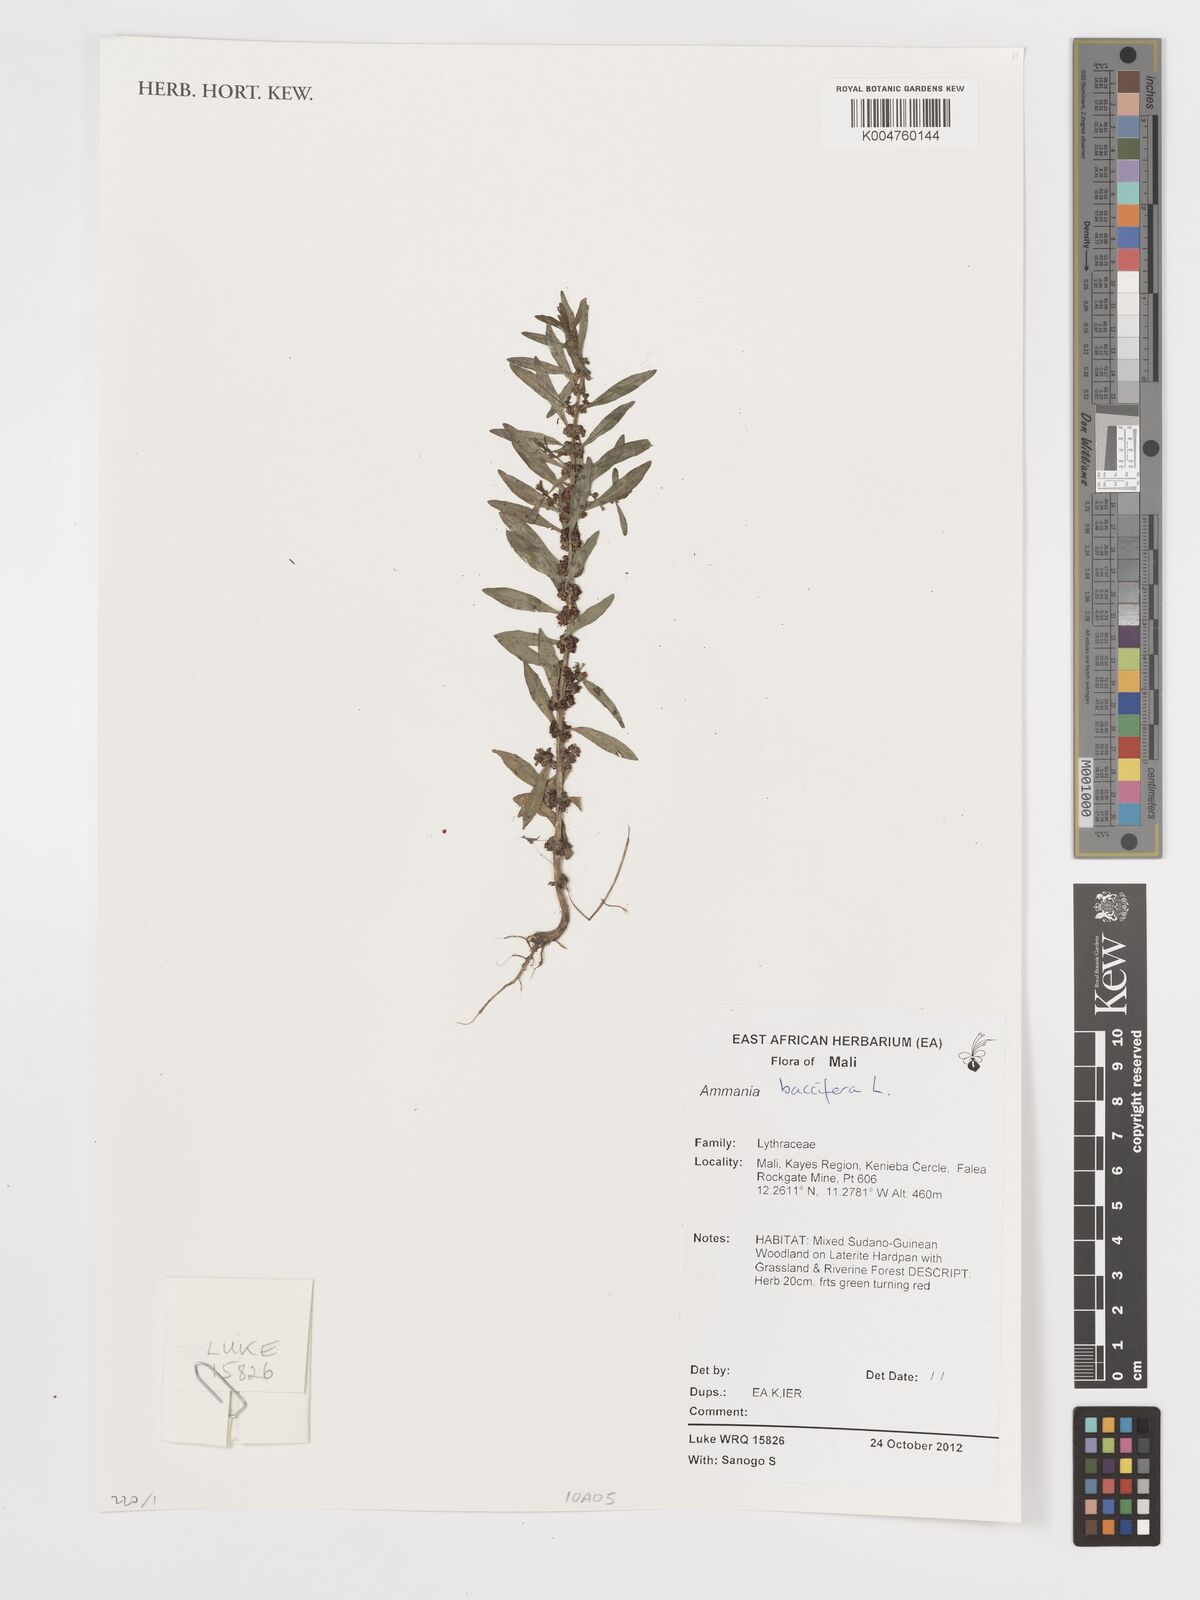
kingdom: Plantae
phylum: Tracheophyta
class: Magnoliopsida
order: Myrtales
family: Lythraceae
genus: Ammannia
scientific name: Ammannia
